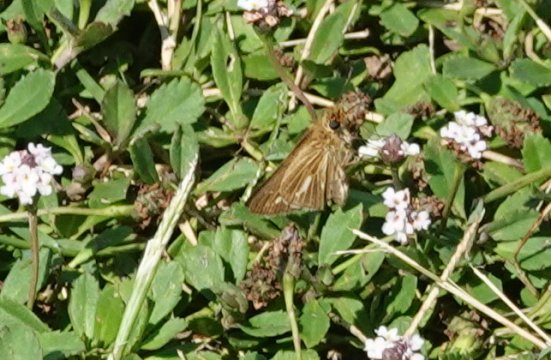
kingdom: Animalia
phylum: Arthropoda
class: Insecta
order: Lepidoptera
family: Hesperiidae
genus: Panoquina
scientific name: Panoquina panoquin
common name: Salt Marsh Skipper
